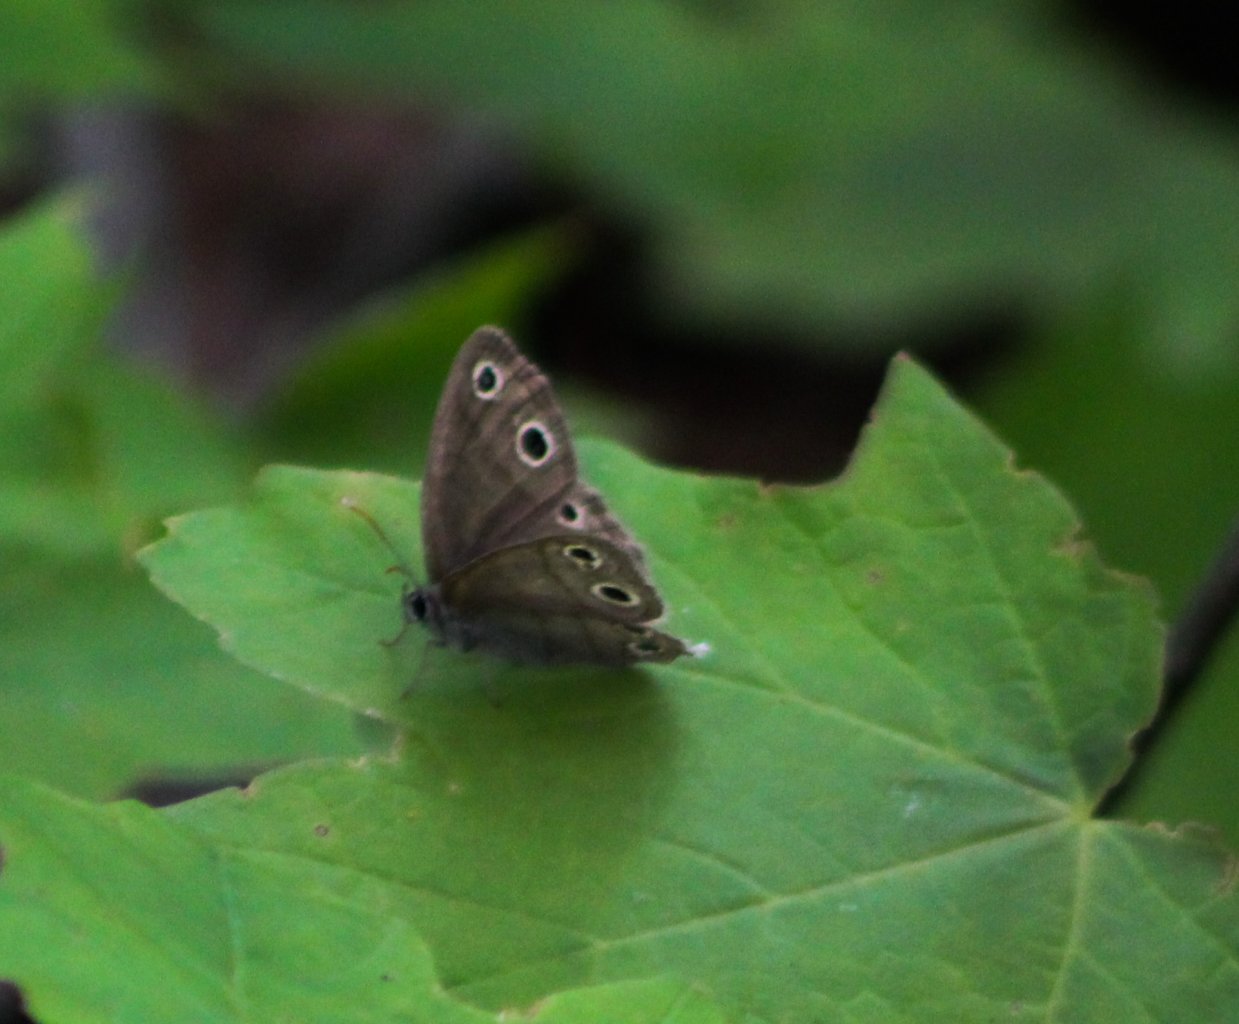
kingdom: Animalia
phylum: Arthropoda
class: Insecta
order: Lepidoptera
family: Nymphalidae
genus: Euptychia
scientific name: Euptychia cymela
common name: Little Wood Satyr
